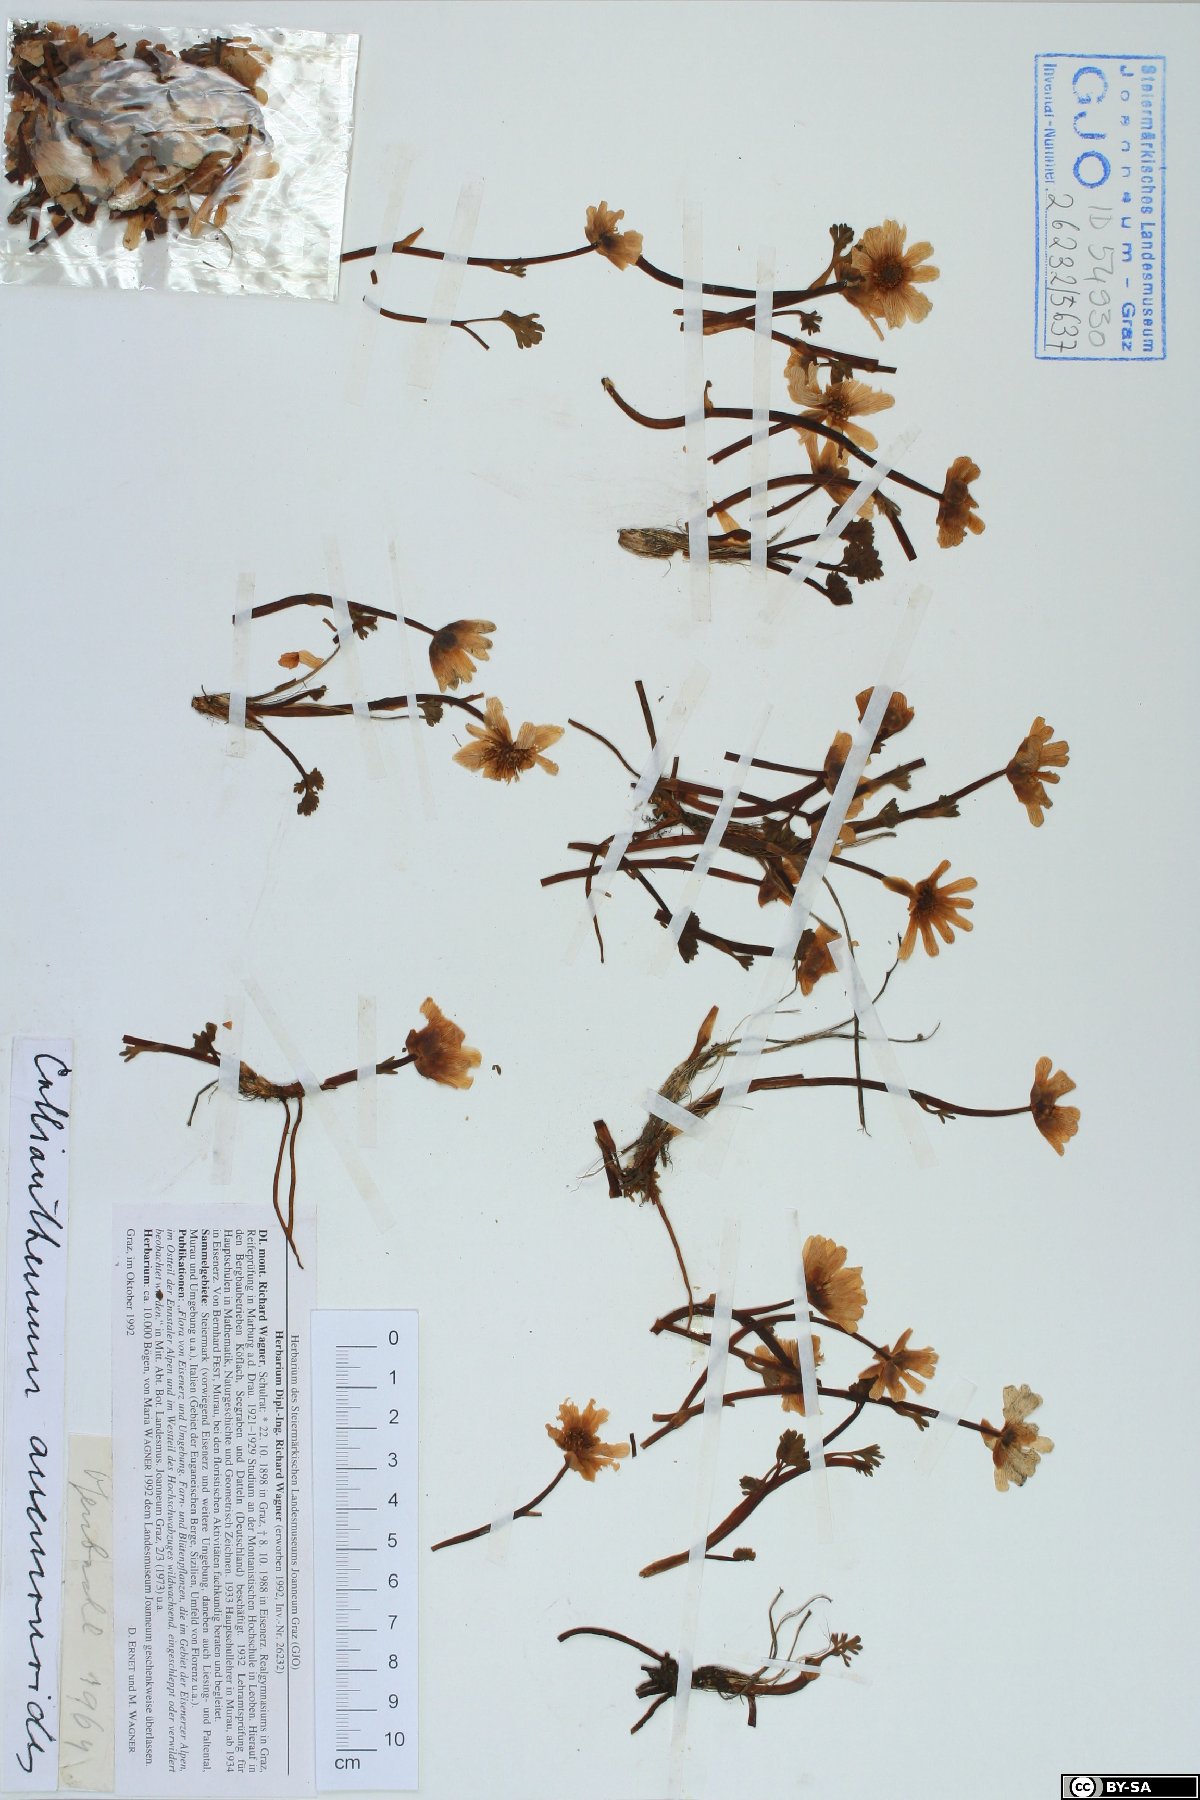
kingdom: Plantae
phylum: Tracheophyta
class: Magnoliopsida
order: Ranunculales
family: Ranunculaceae
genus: Callianthemum
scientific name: Callianthemum anemonoides
